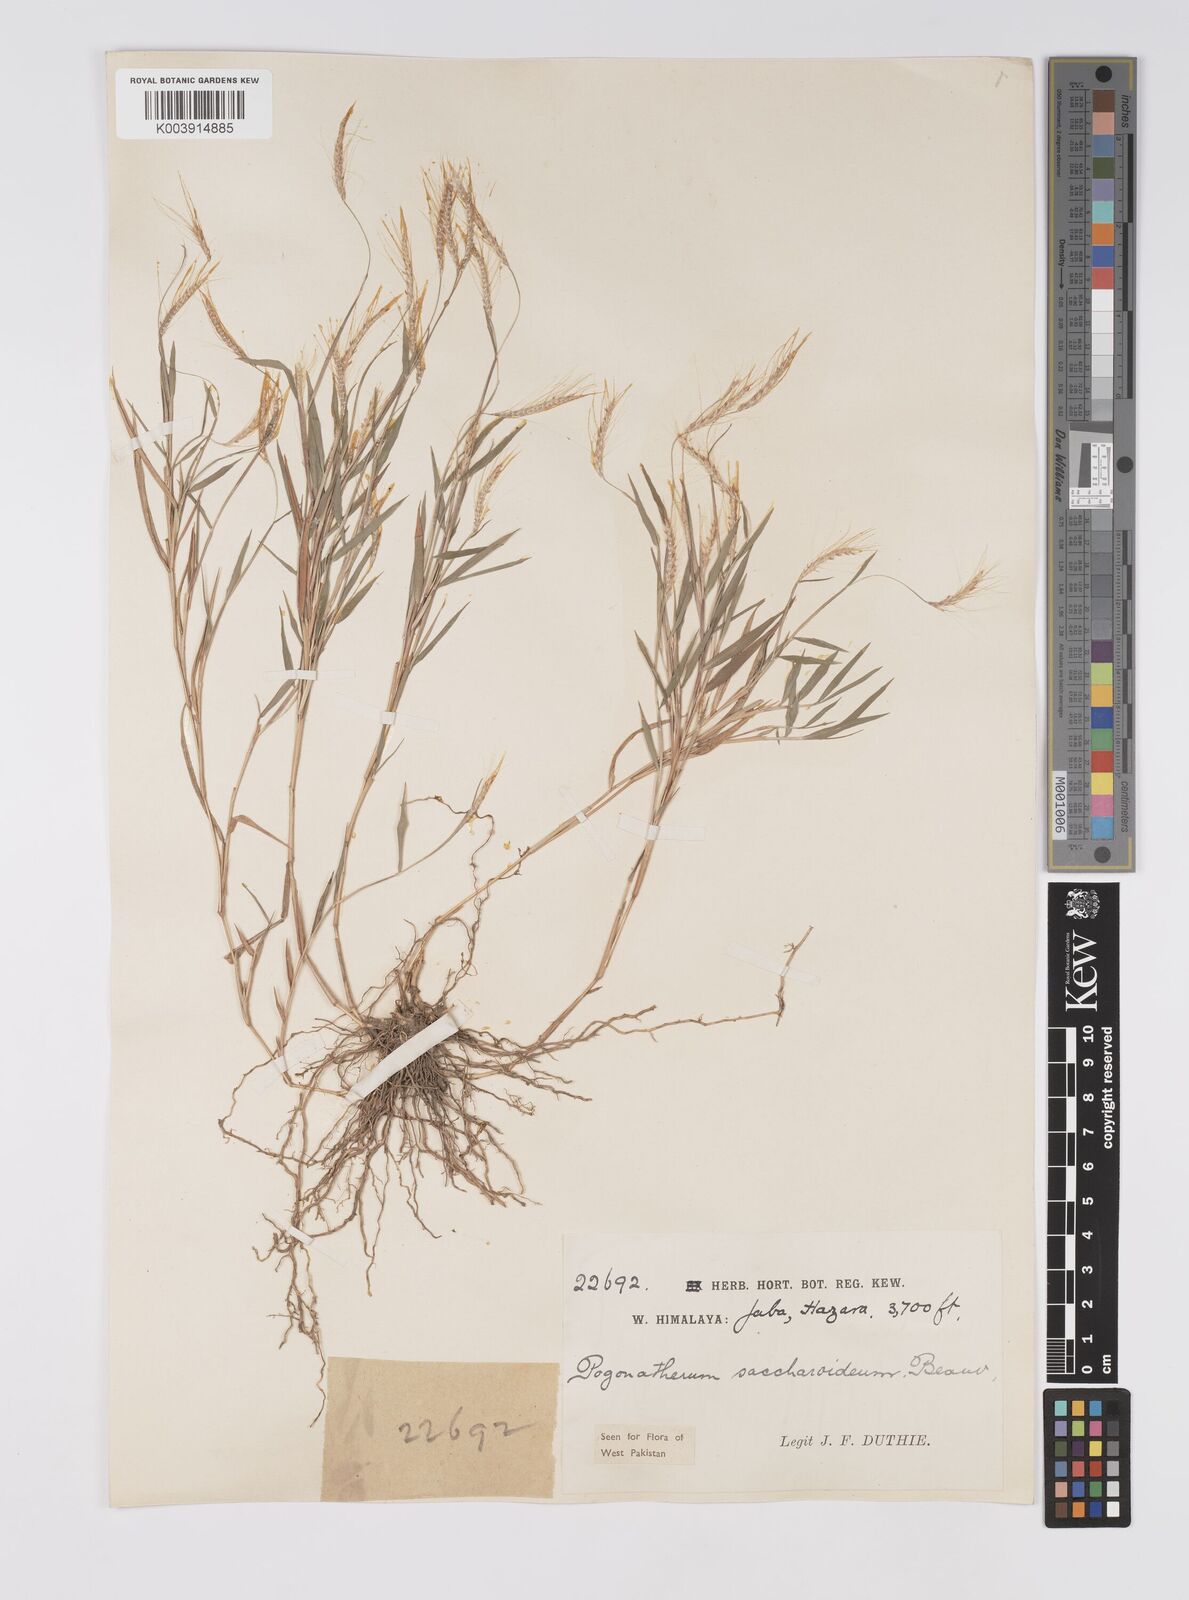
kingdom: Plantae
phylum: Tracheophyta
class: Liliopsida
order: Poales
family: Poaceae
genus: Pogonatherum
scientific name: Pogonatherum paniceum
